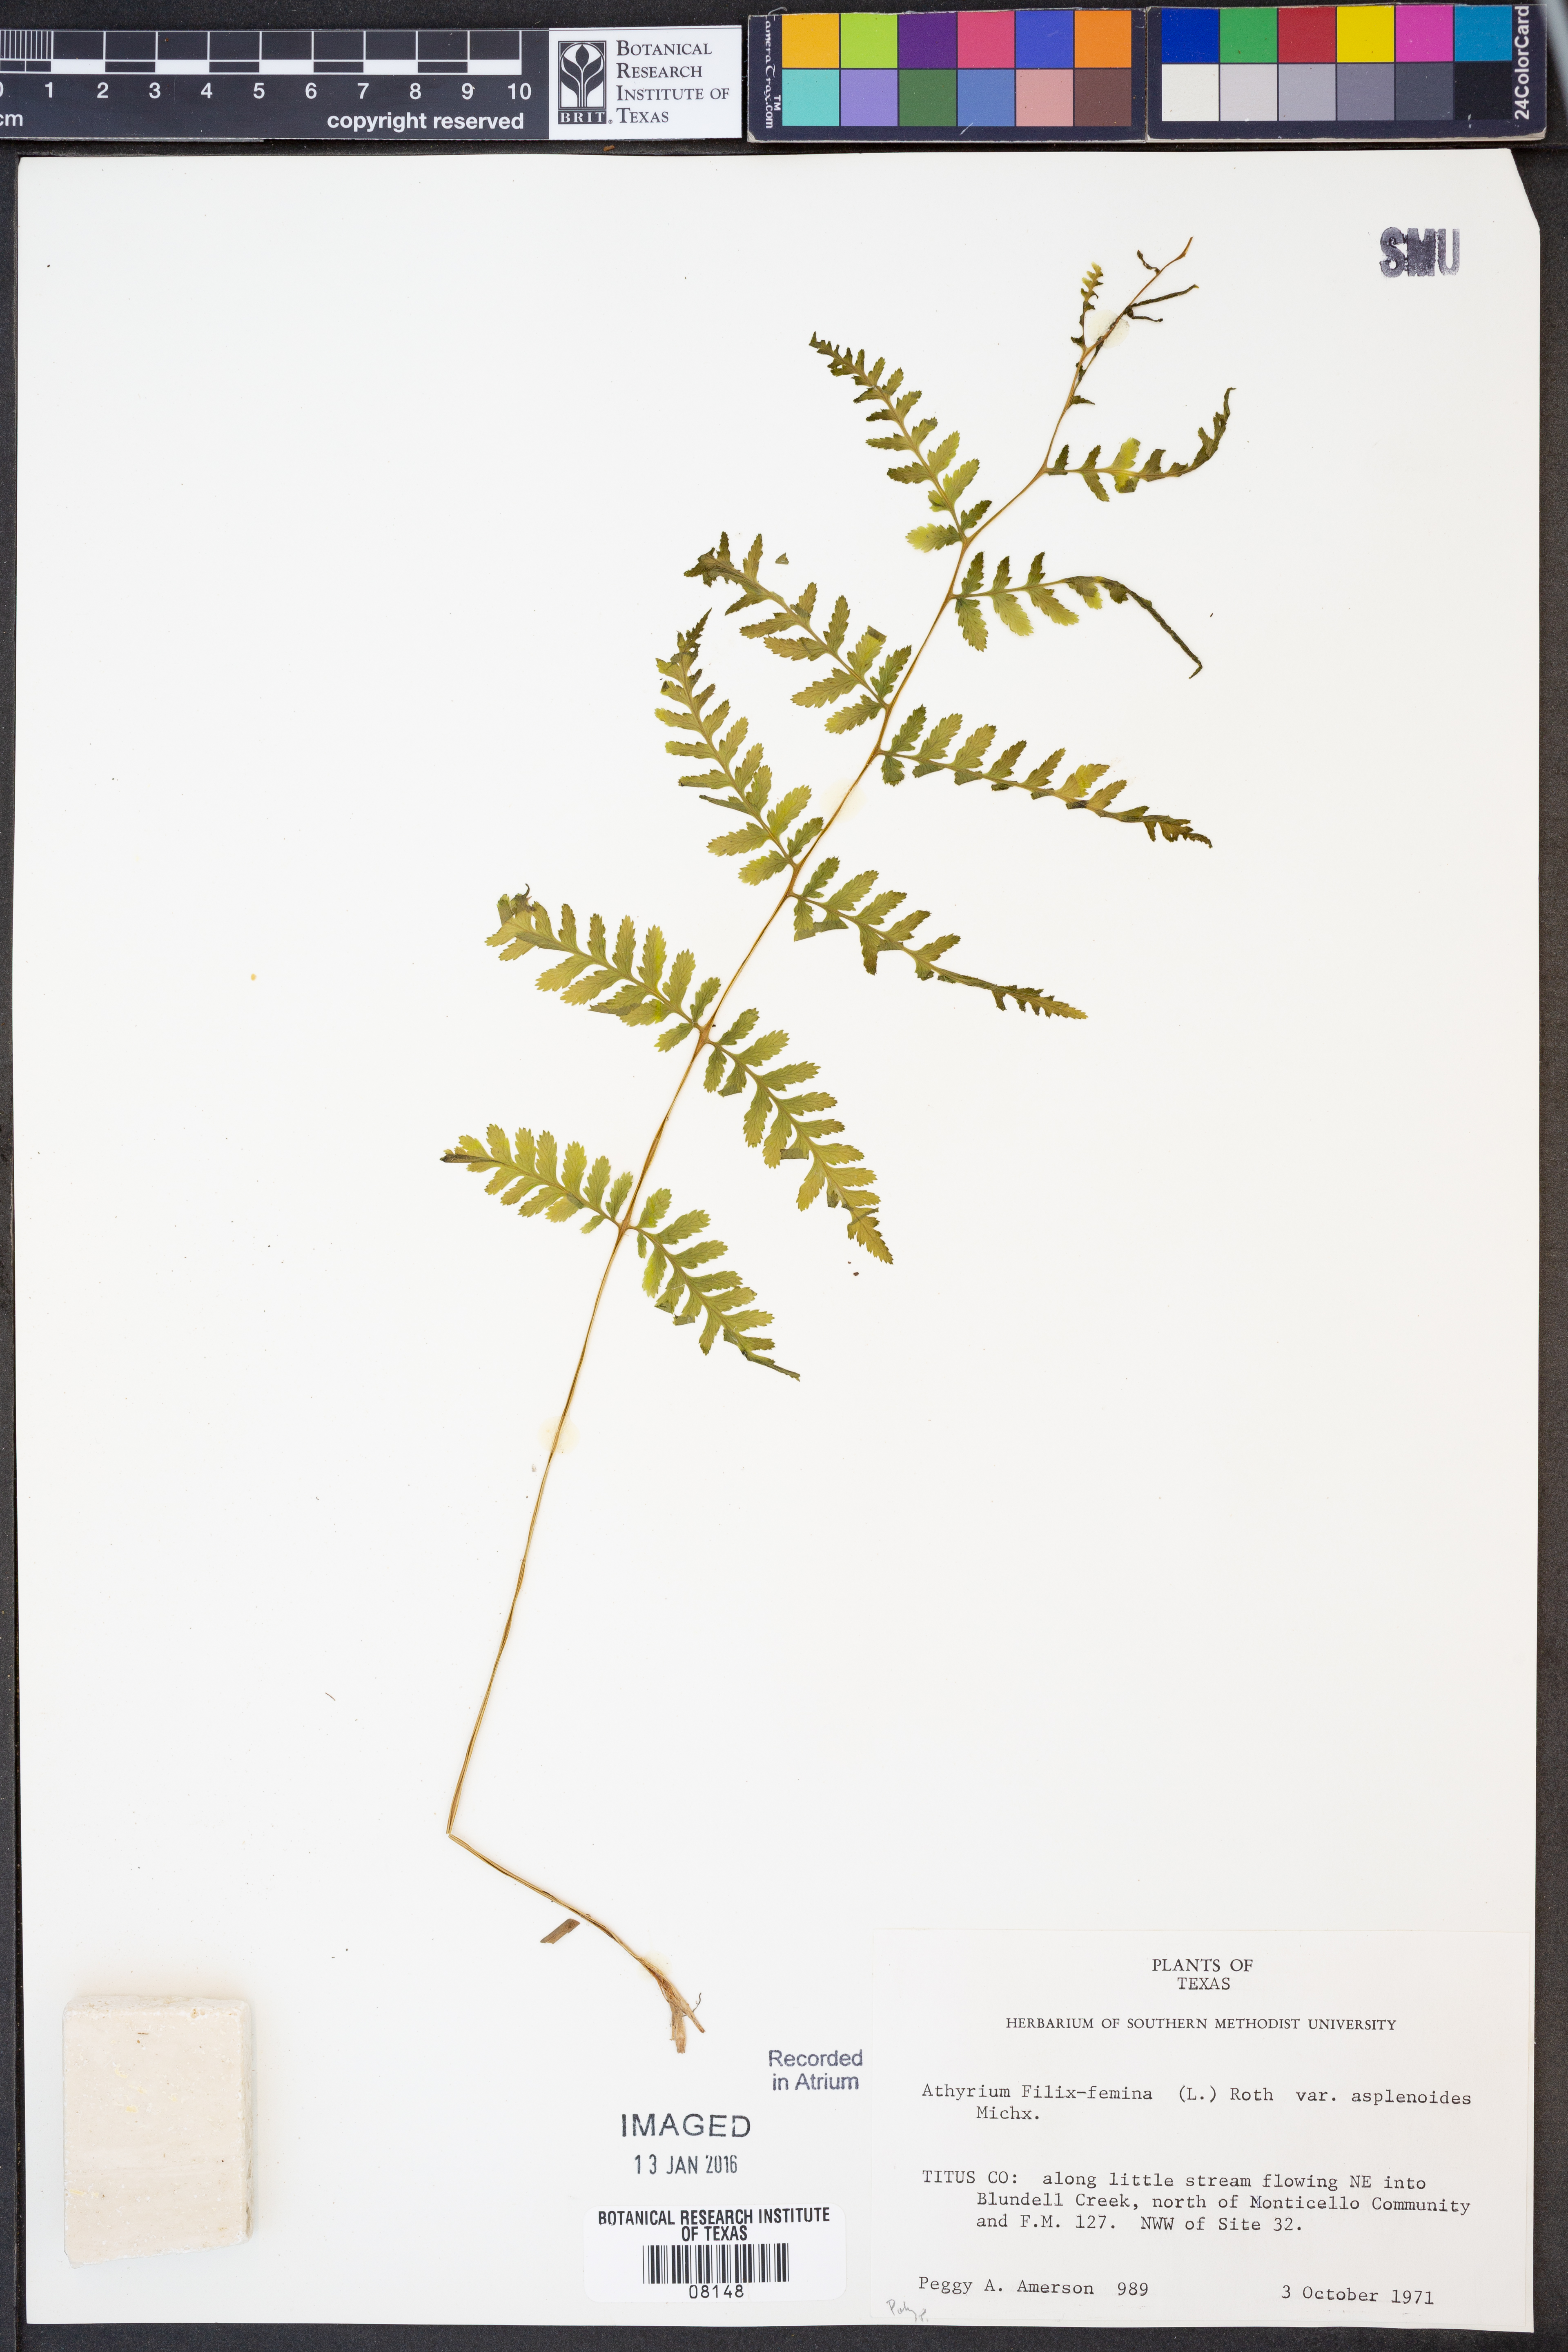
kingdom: Plantae
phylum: Tracheophyta
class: Polypodiopsida
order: Polypodiales
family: Athyriaceae
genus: Athyrium
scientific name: Athyrium asplenioides
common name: Southern lady fern
